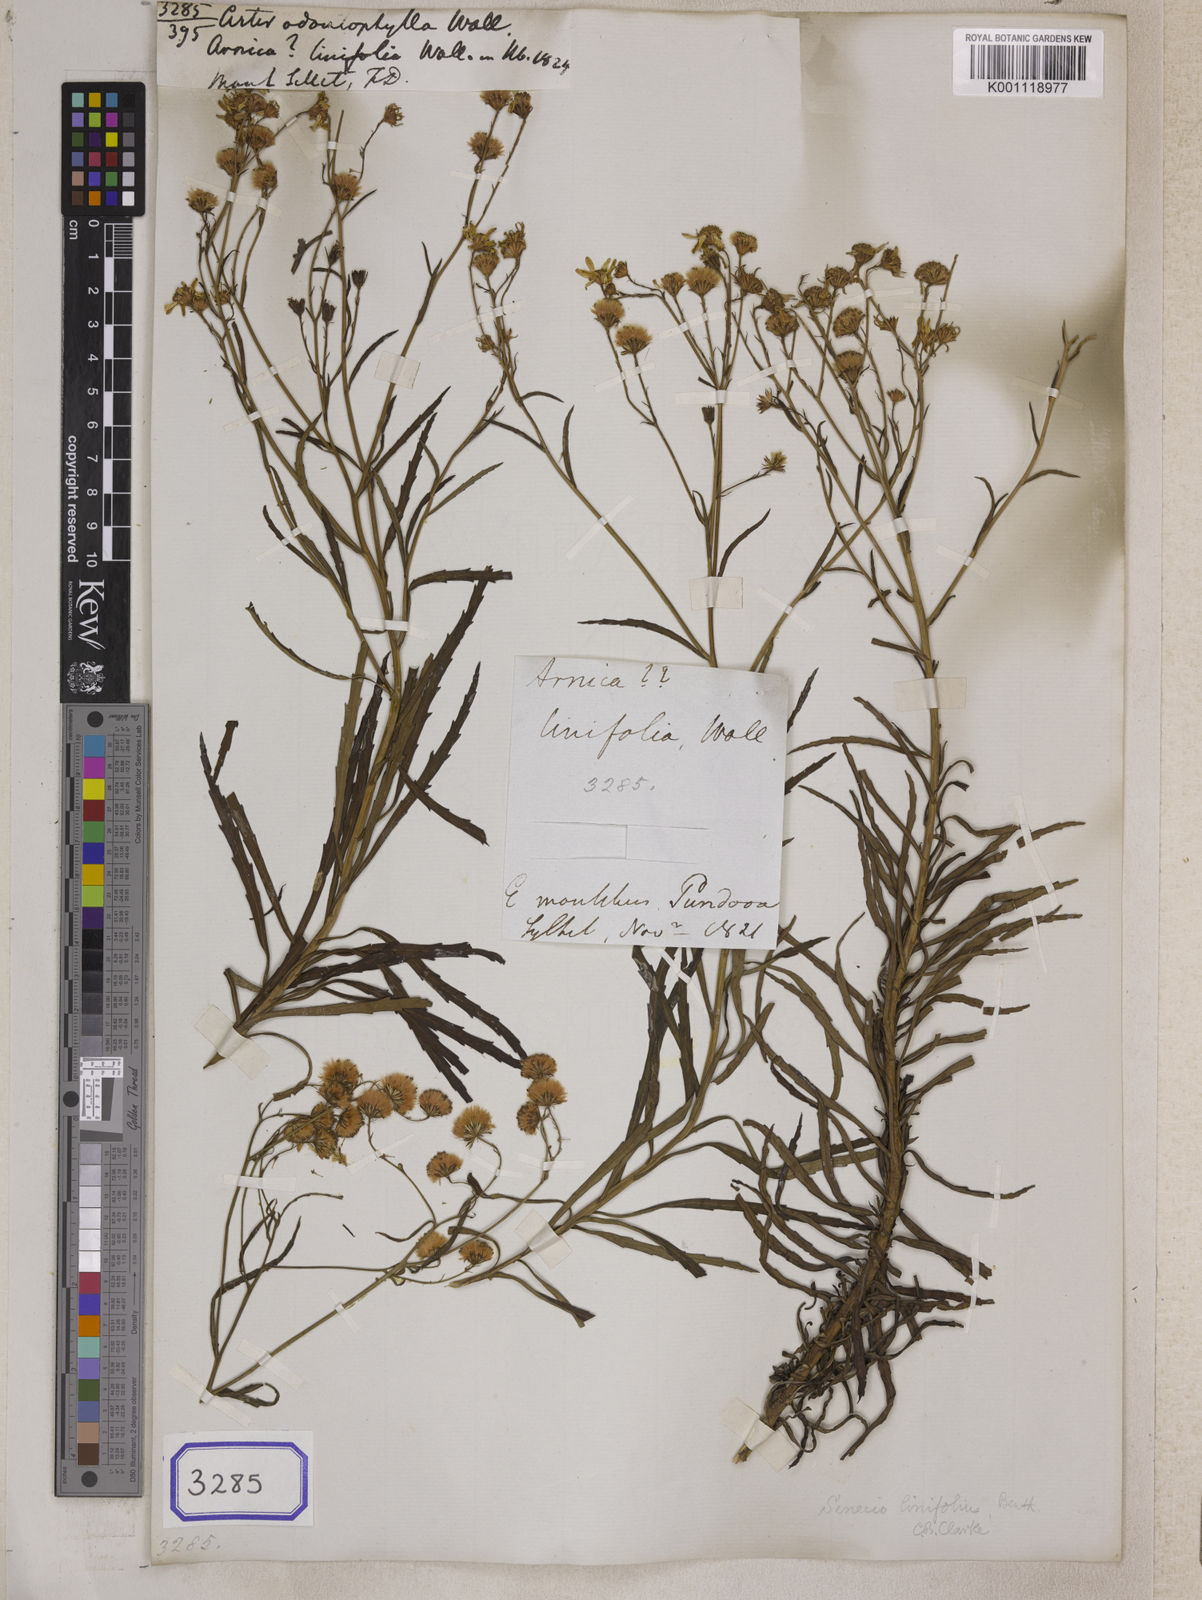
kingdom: Plantae
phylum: Tracheophyta
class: Magnoliopsida
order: Asterales
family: Asteraceae
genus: Senecio
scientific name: Senecio odontophyllus
